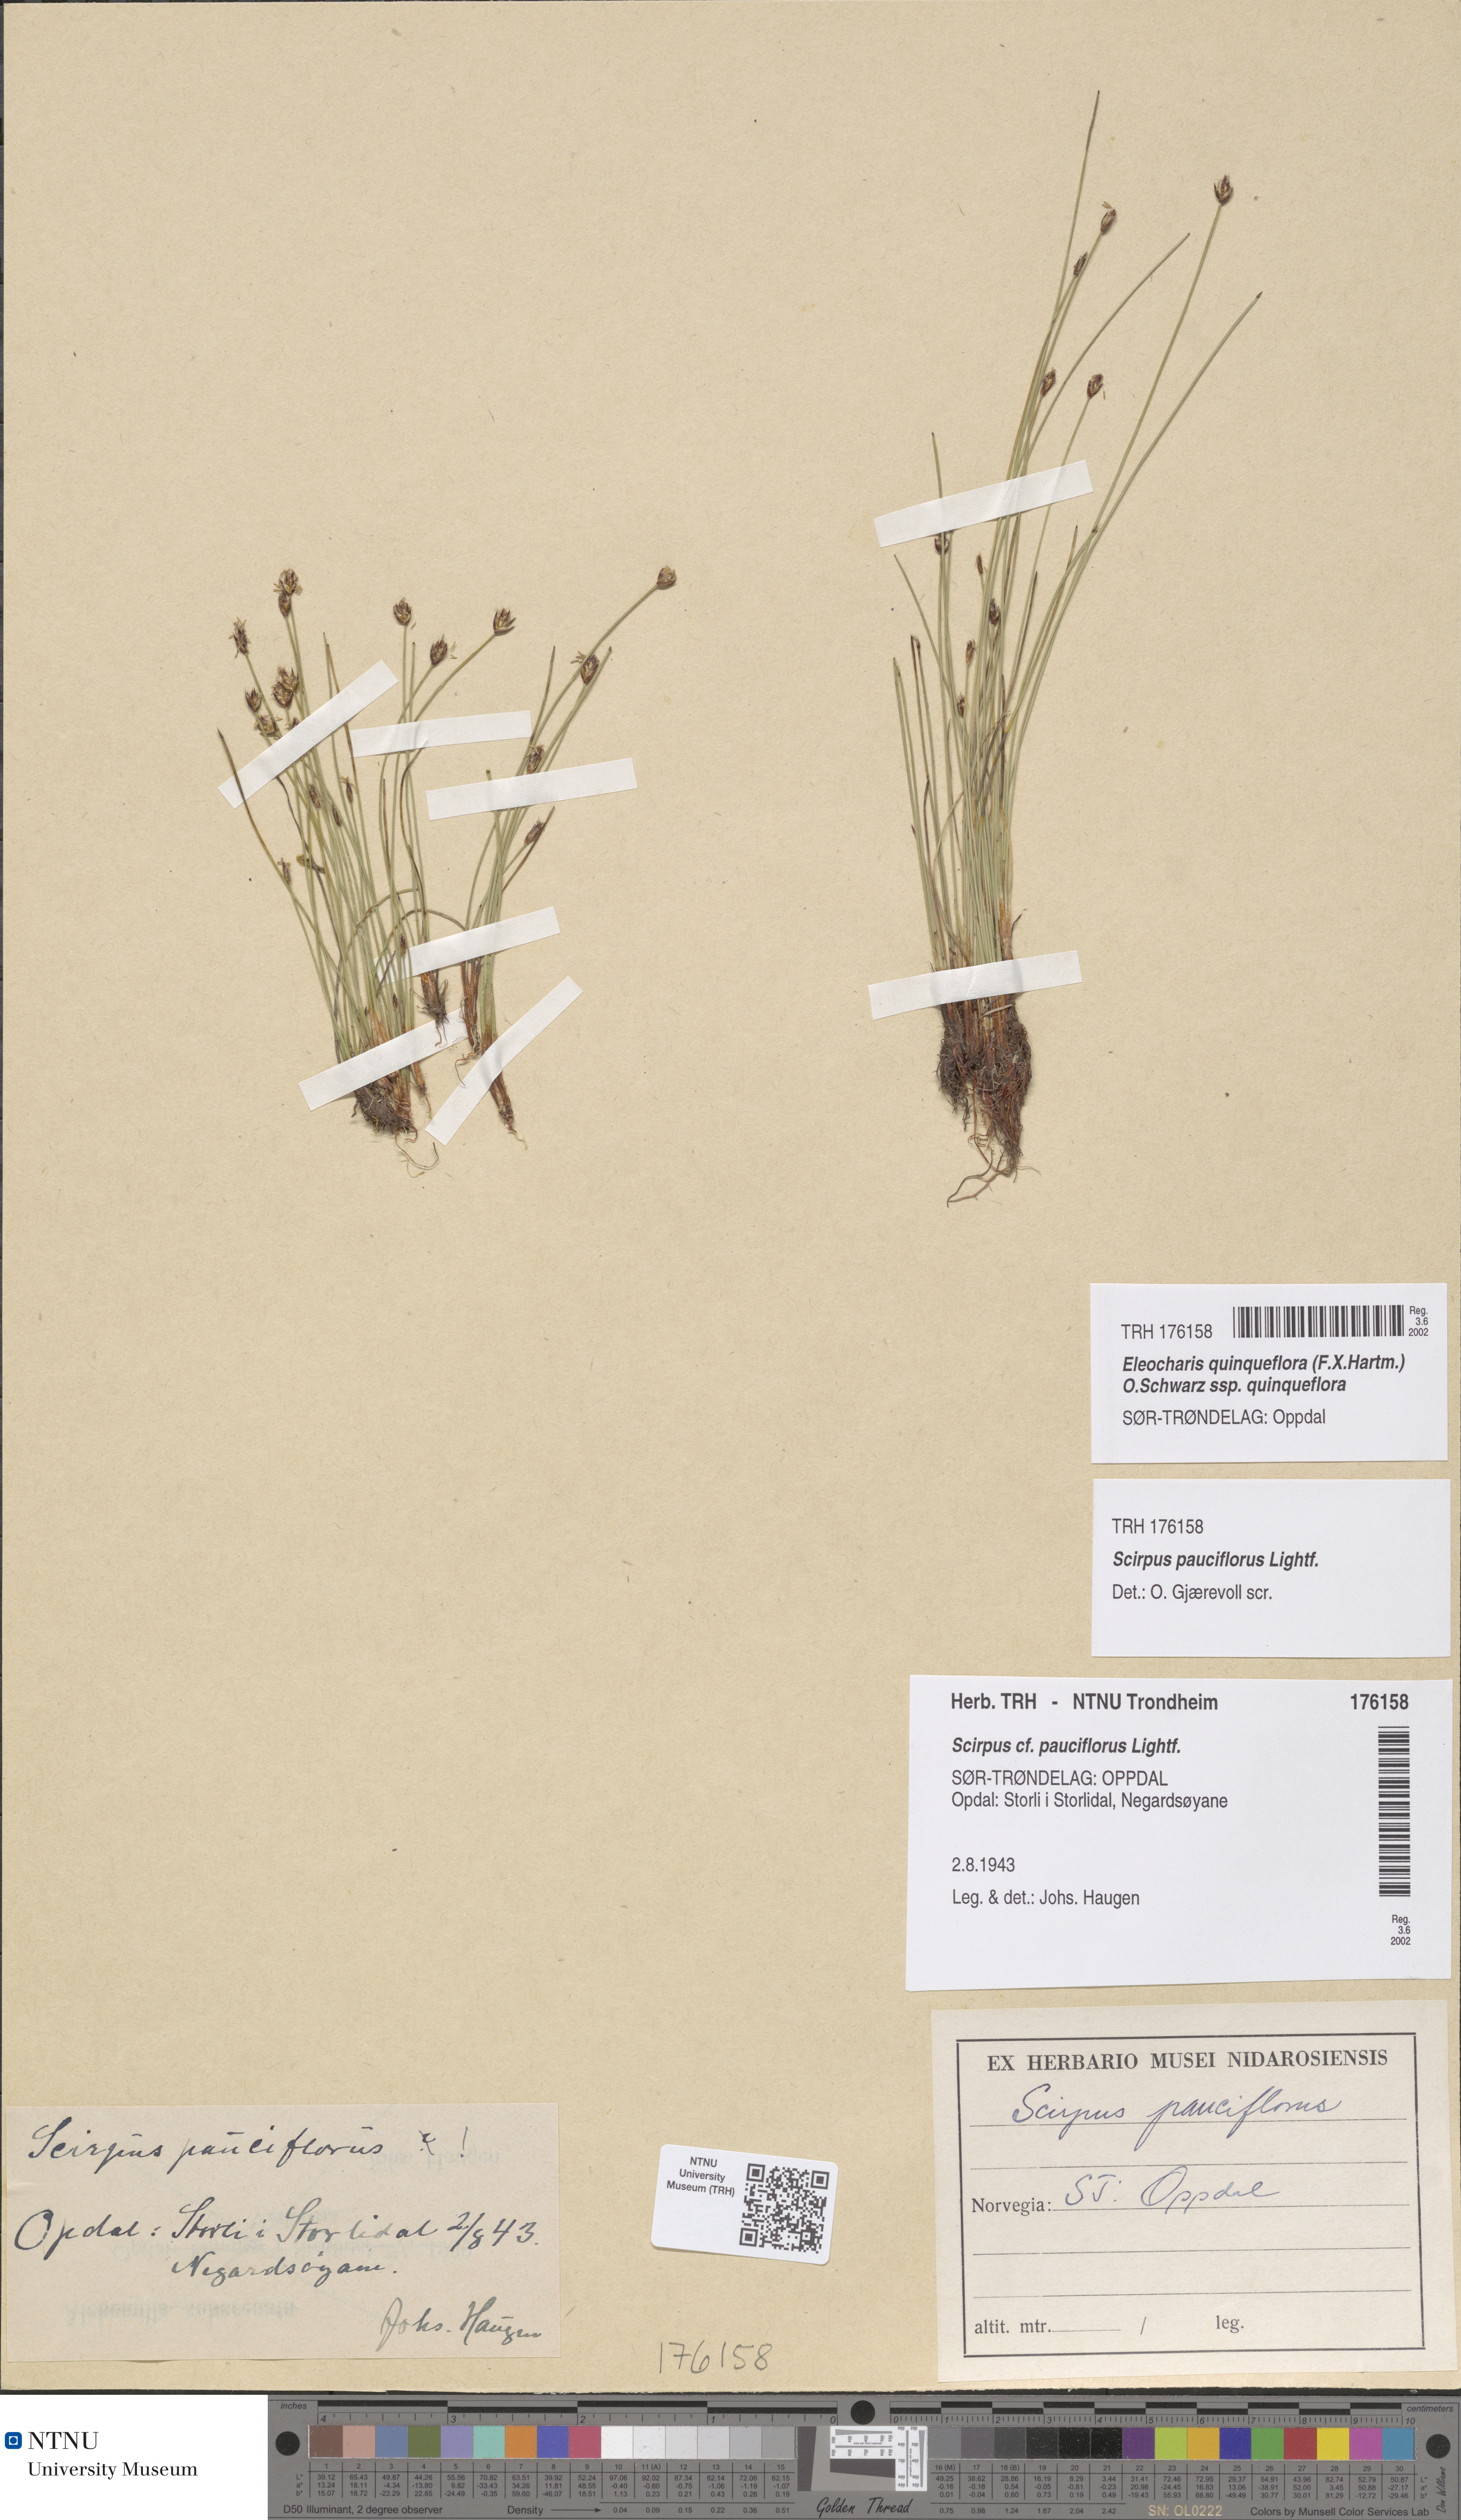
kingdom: Plantae
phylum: Tracheophyta
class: Liliopsida
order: Poales
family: Cyperaceae
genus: Eleocharis
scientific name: Eleocharis quinqueflora
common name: Few-flowered spike-rush
